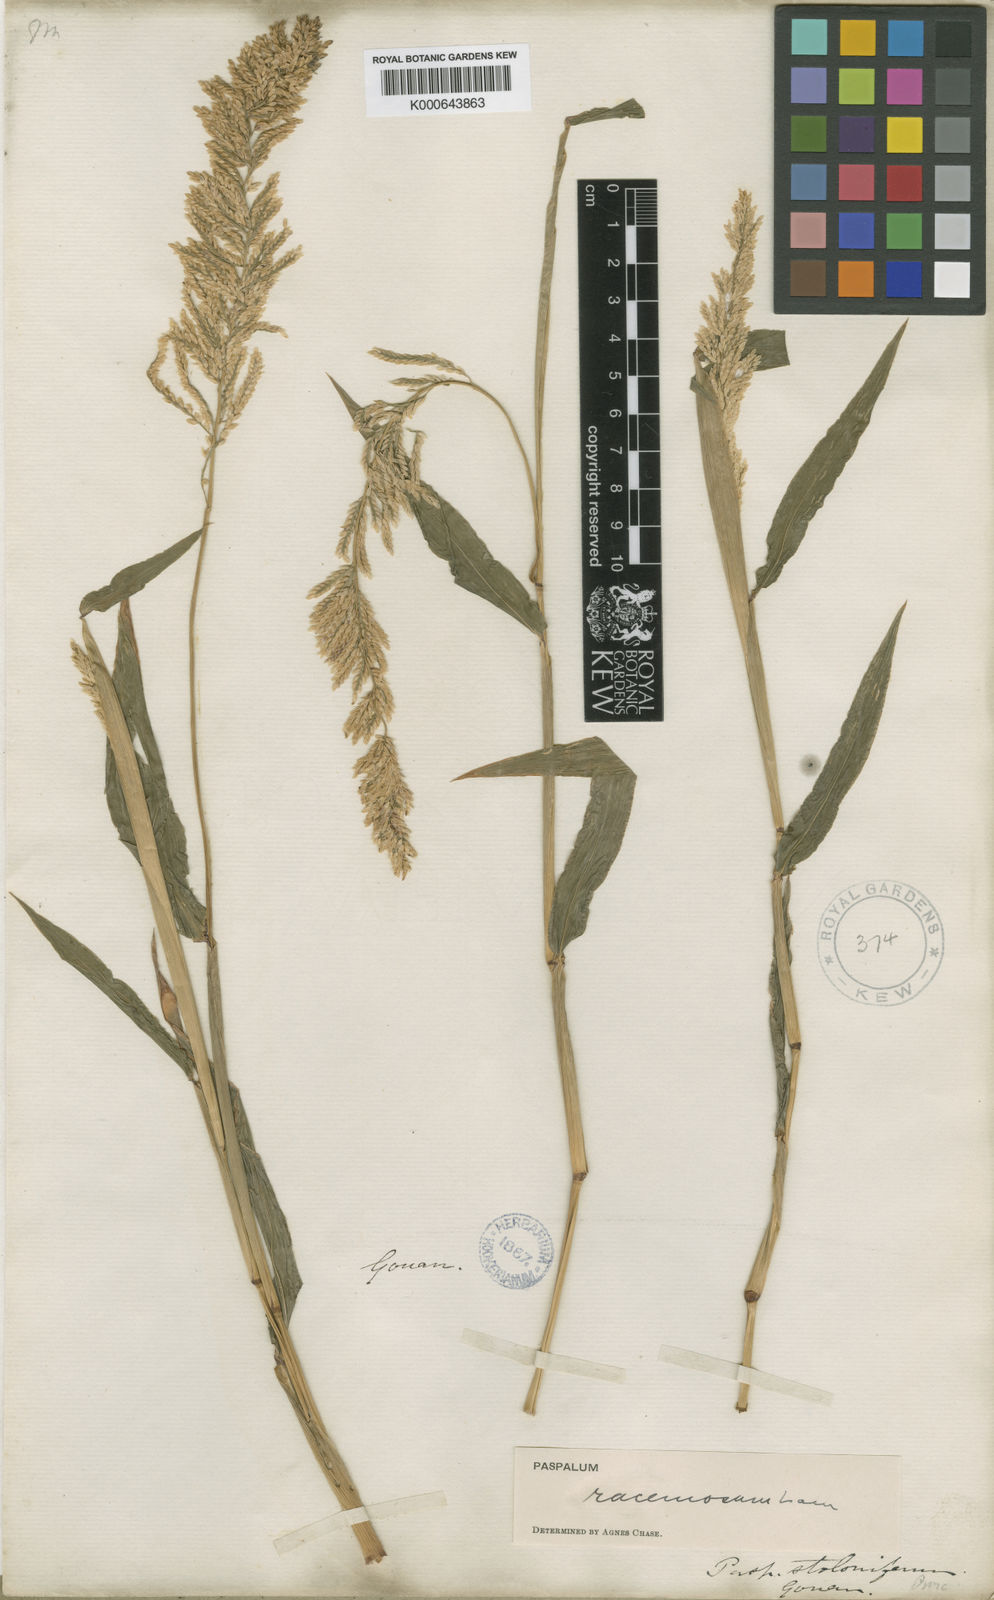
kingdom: Plantae
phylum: Tracheophyta
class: Liliopsida
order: Poales
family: Poaceae
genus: Paspalum
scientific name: Paspalum racemosum
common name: Peruvian paspalum
